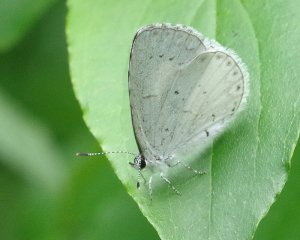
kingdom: Animalia
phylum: Arthropoda
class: Insecta
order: Lepidoptera
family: Lycaenidae
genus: Cyaniris
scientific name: Cyaniris neglecta
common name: Summer Azure
